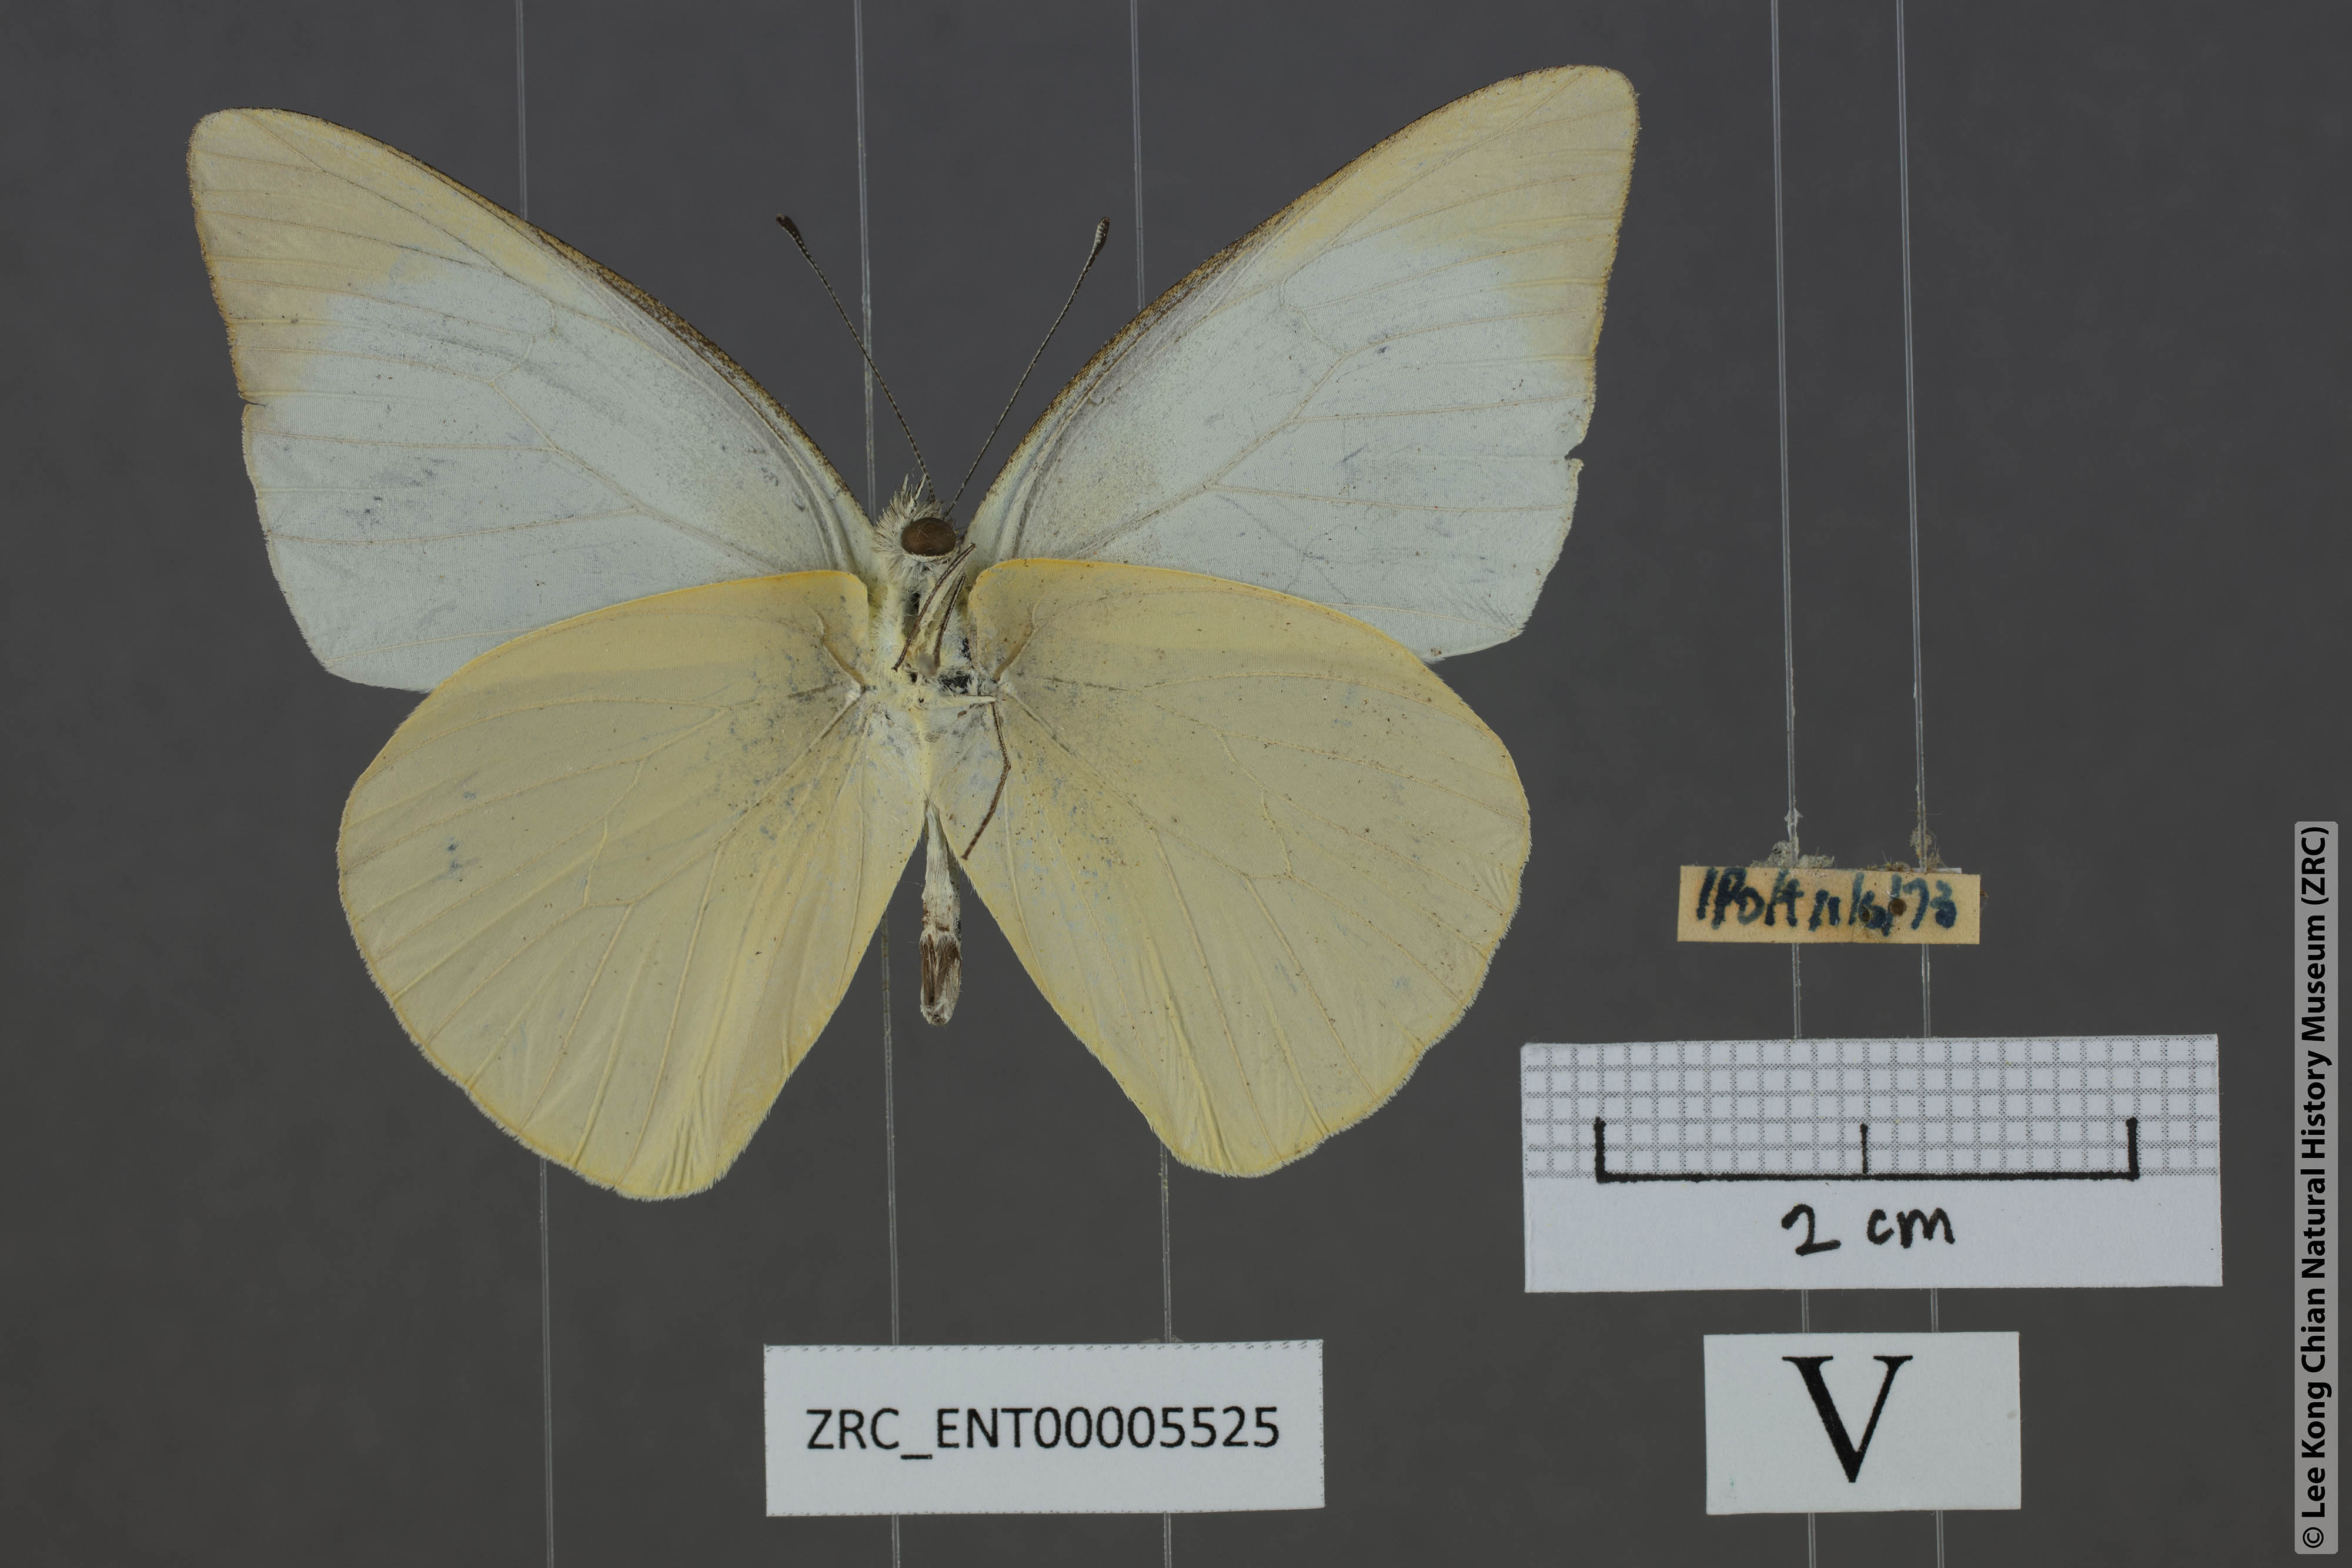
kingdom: Animalia
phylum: Arthropoda
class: Insecta
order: Lepidoptera
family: Pieridae
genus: Appias
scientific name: Appias albina
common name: Common albatross
